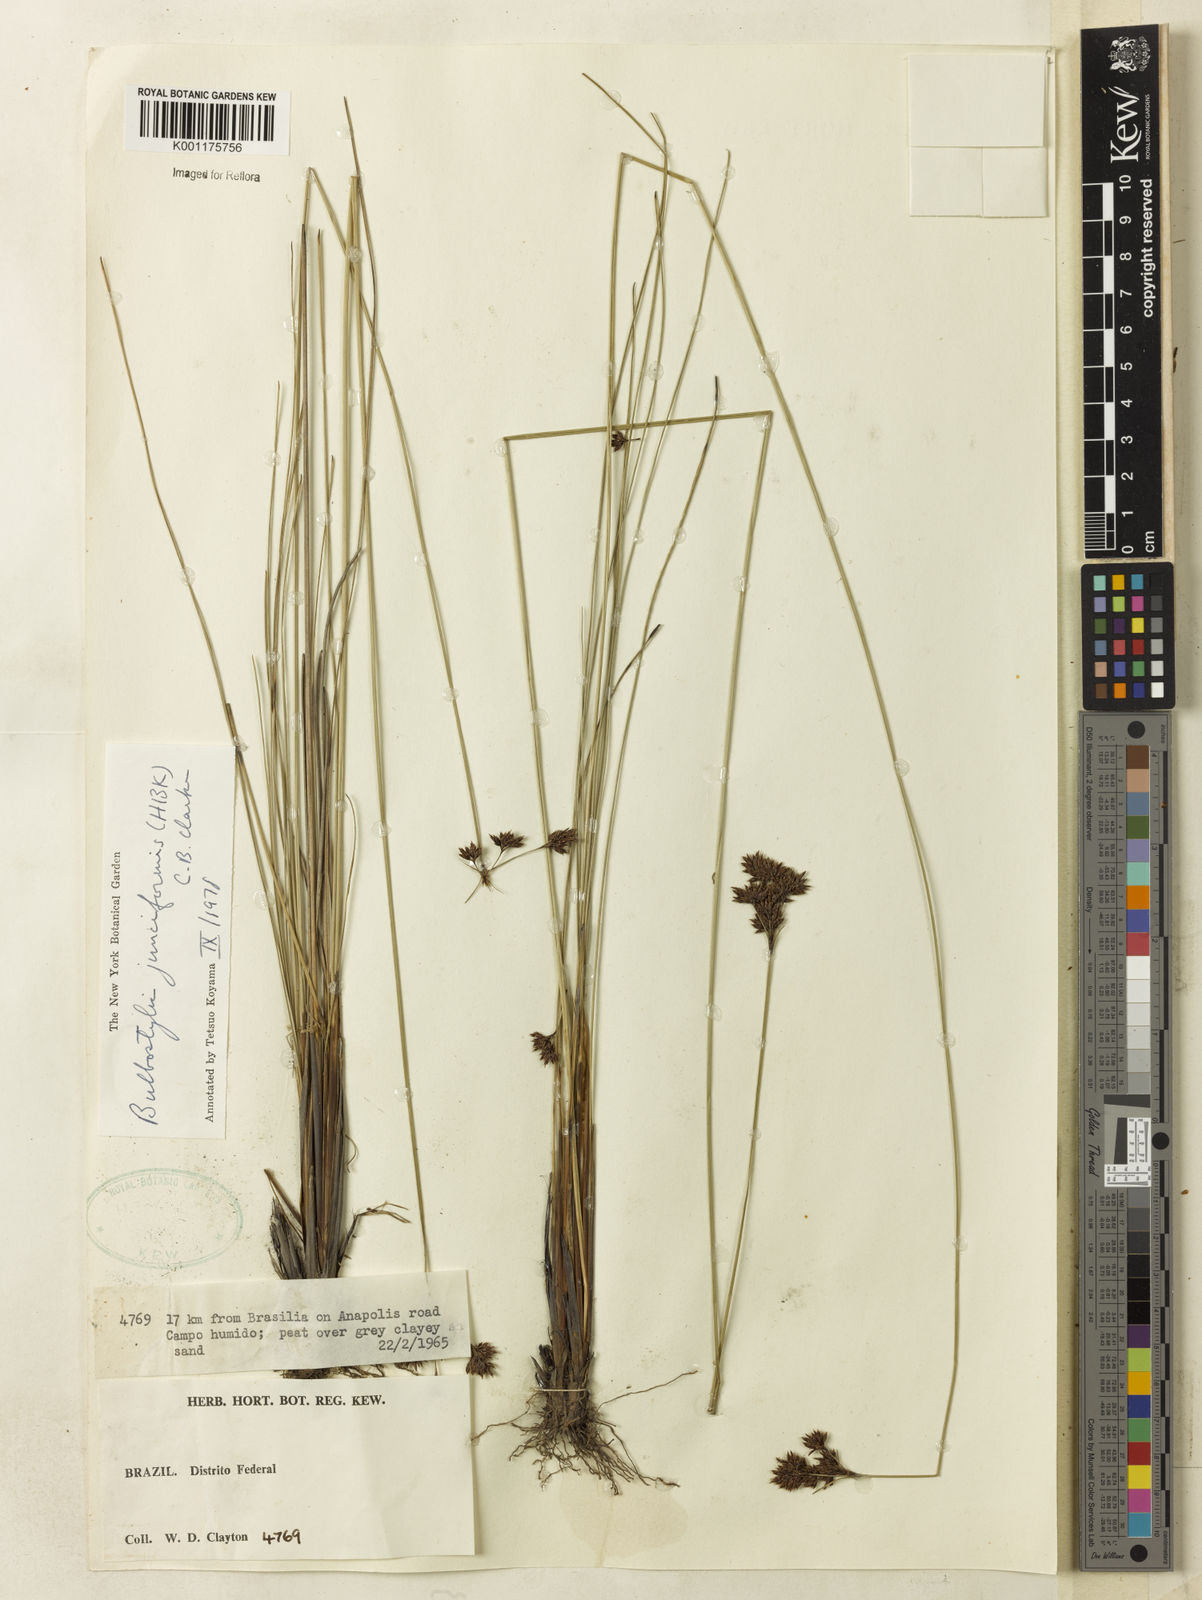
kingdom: Plantae
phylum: Tracheophyta
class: Liliopsida
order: Poales
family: Cyperaceae
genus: Bulbostylis
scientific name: Bulbostylis junciformis
